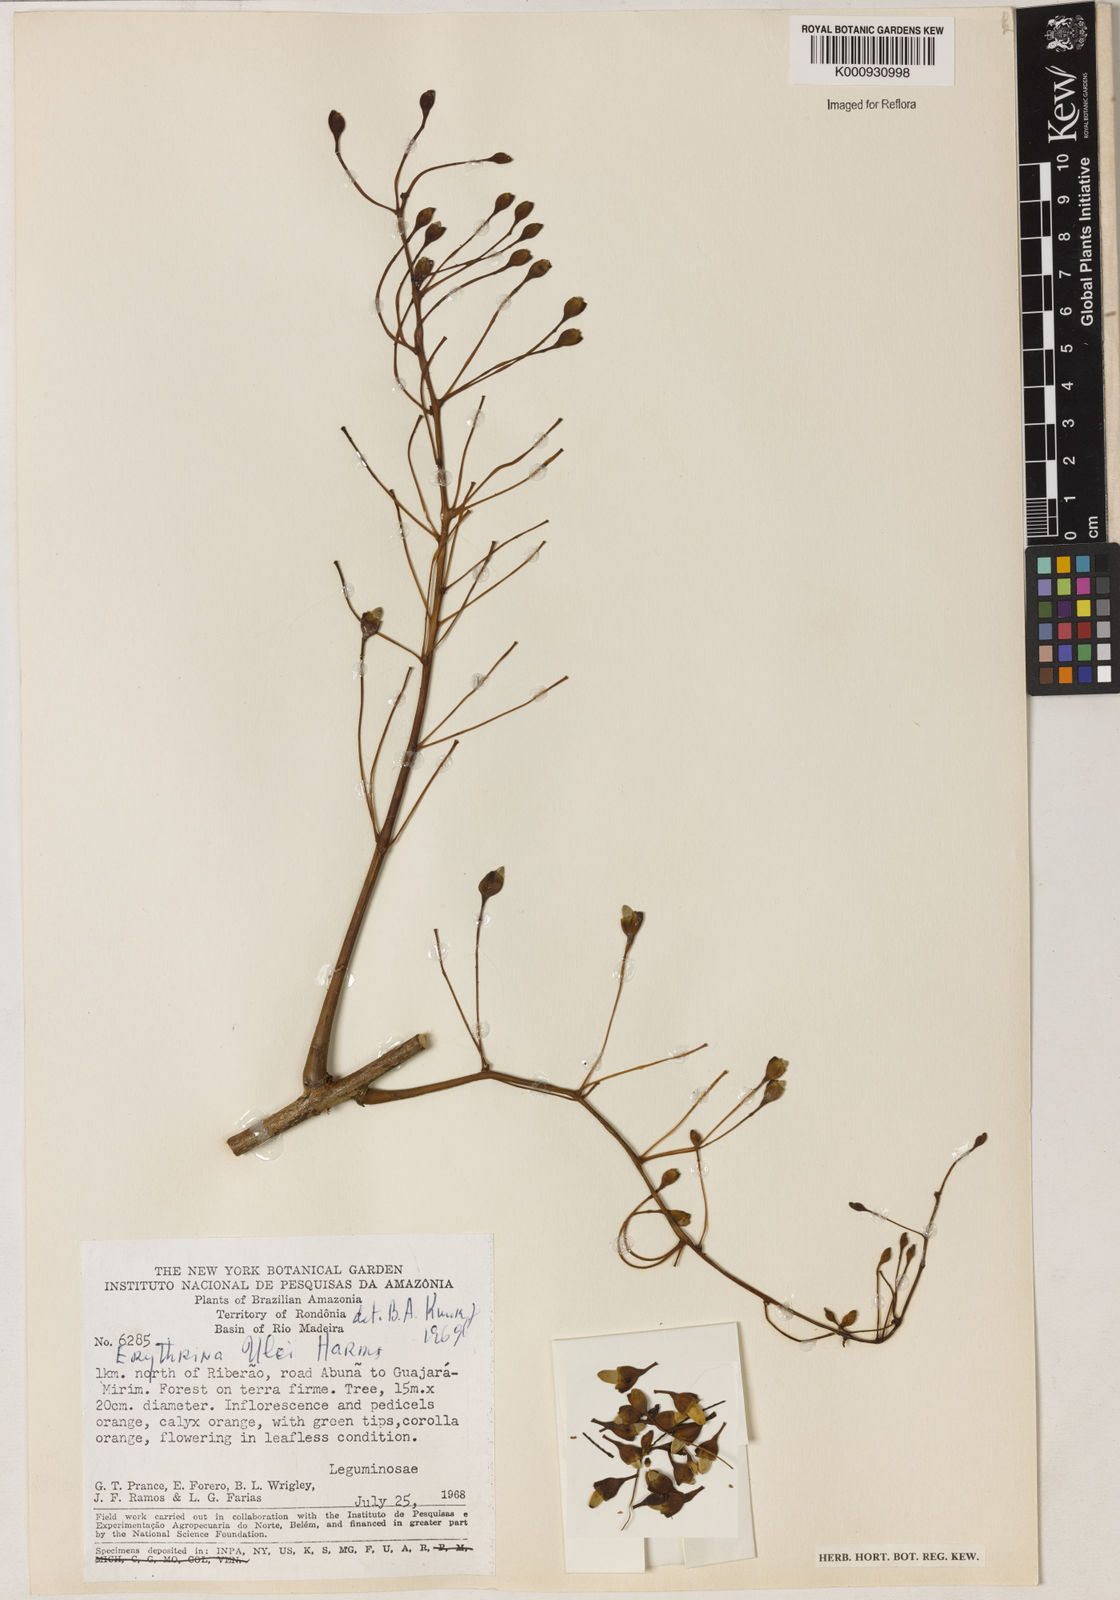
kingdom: Plantae
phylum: Tracheophyta
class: Magnoliopsida
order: Fabales
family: Fabaceae
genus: Erythrina
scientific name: Erythrina ulei
